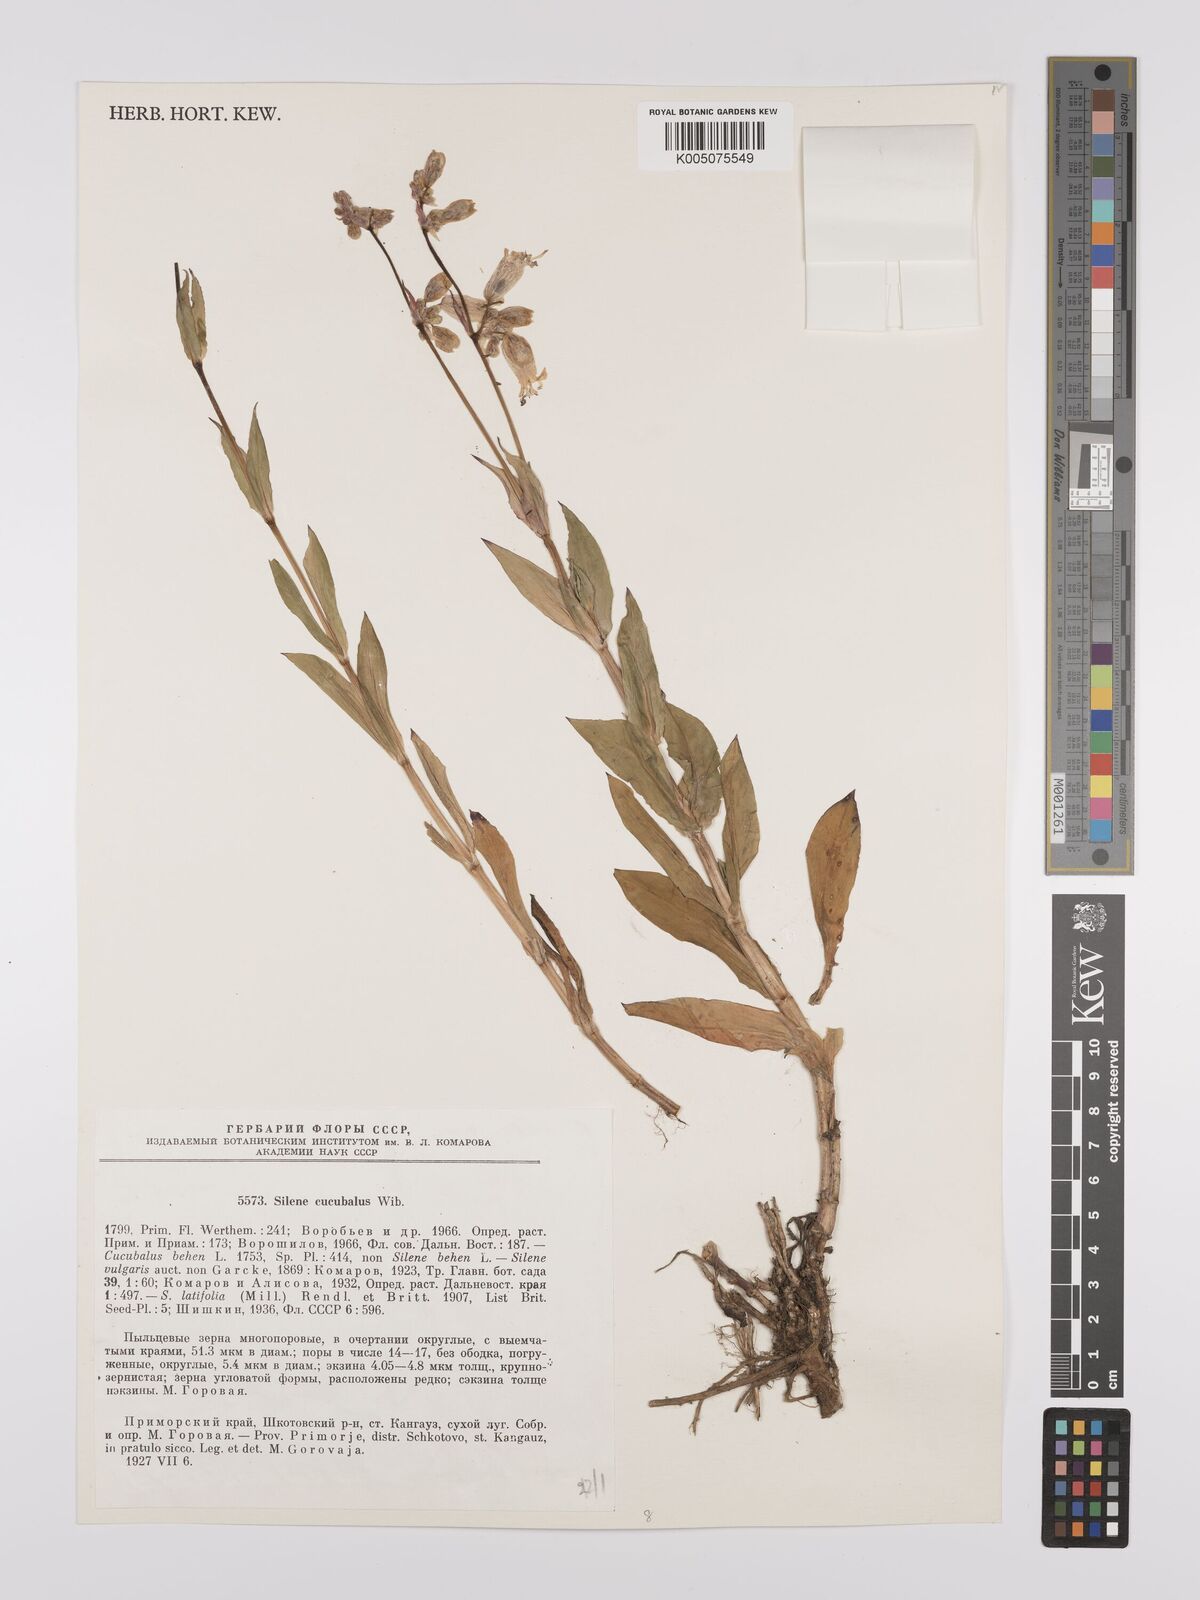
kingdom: Plantae
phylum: Tracheophyta
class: Magnoliopsida
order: Caryophyllales
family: Caryophyllaceae
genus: Silene
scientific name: Silene vulgaris
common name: Bladder campion
